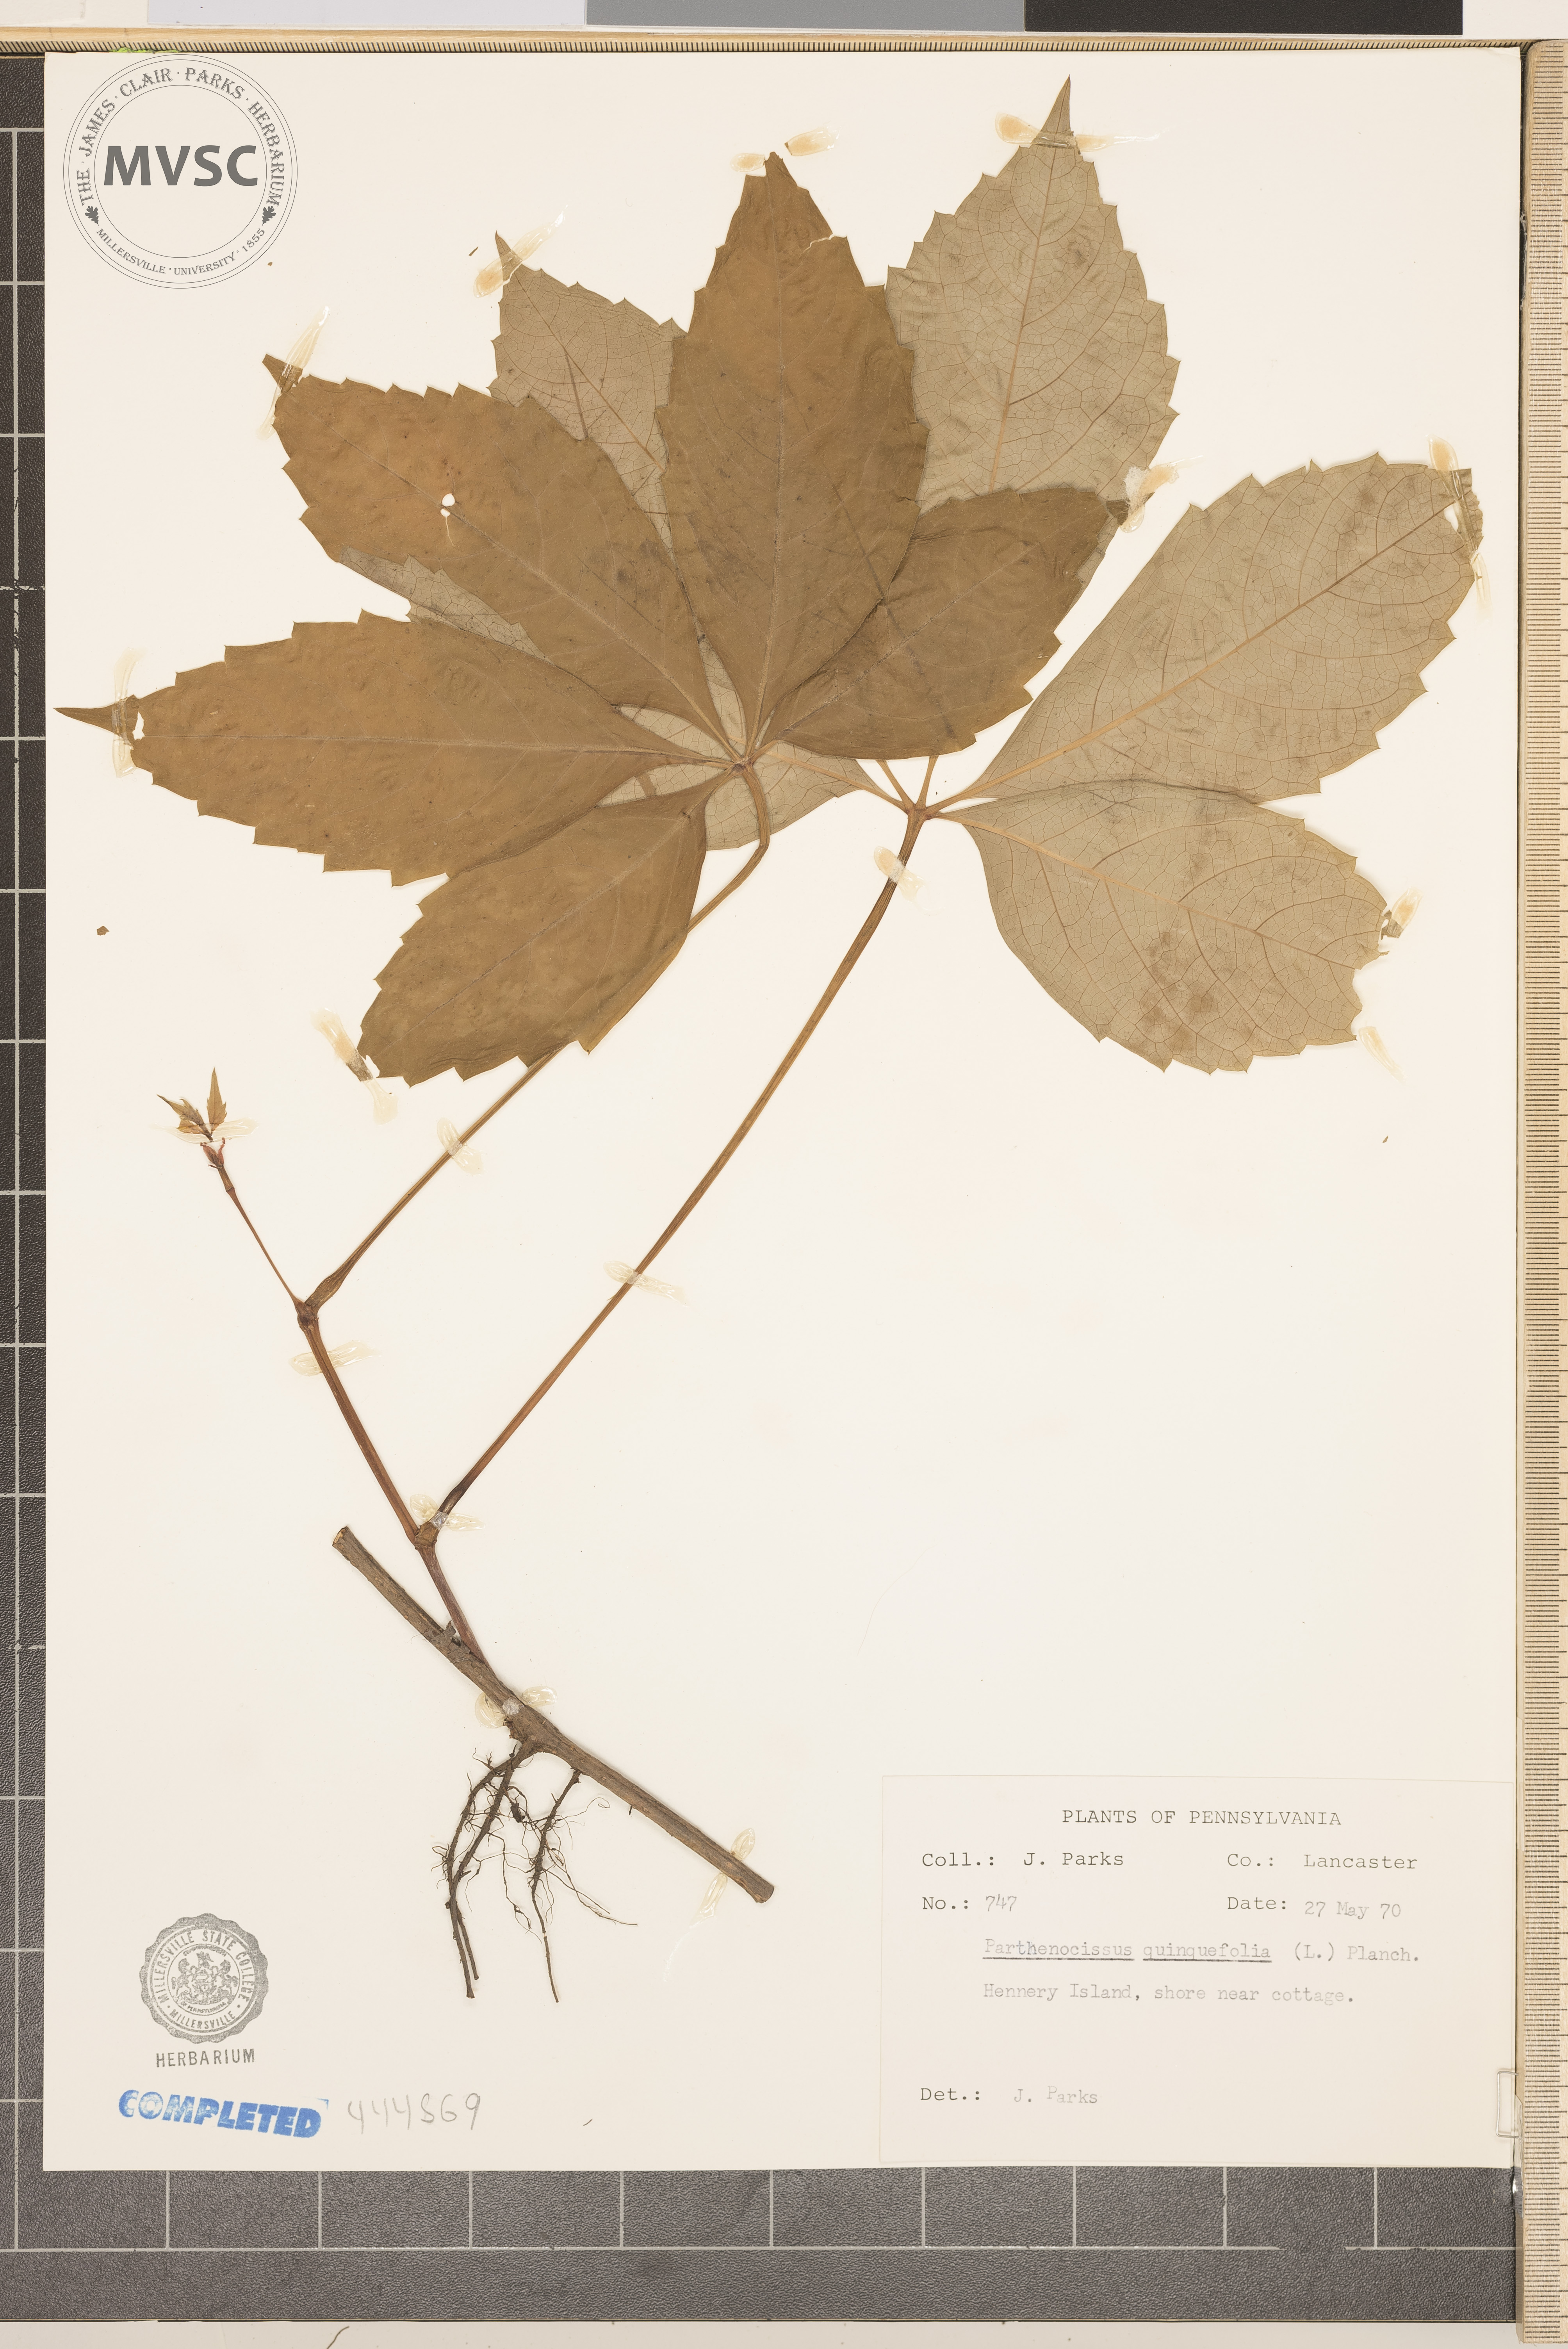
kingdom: Plantae
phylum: Tracheophyta
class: Magnoliopsida
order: Vitales
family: Vitaceae
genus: Parthenocissus
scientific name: Parthenocissus quinquefolia
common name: Virginia-creeper
